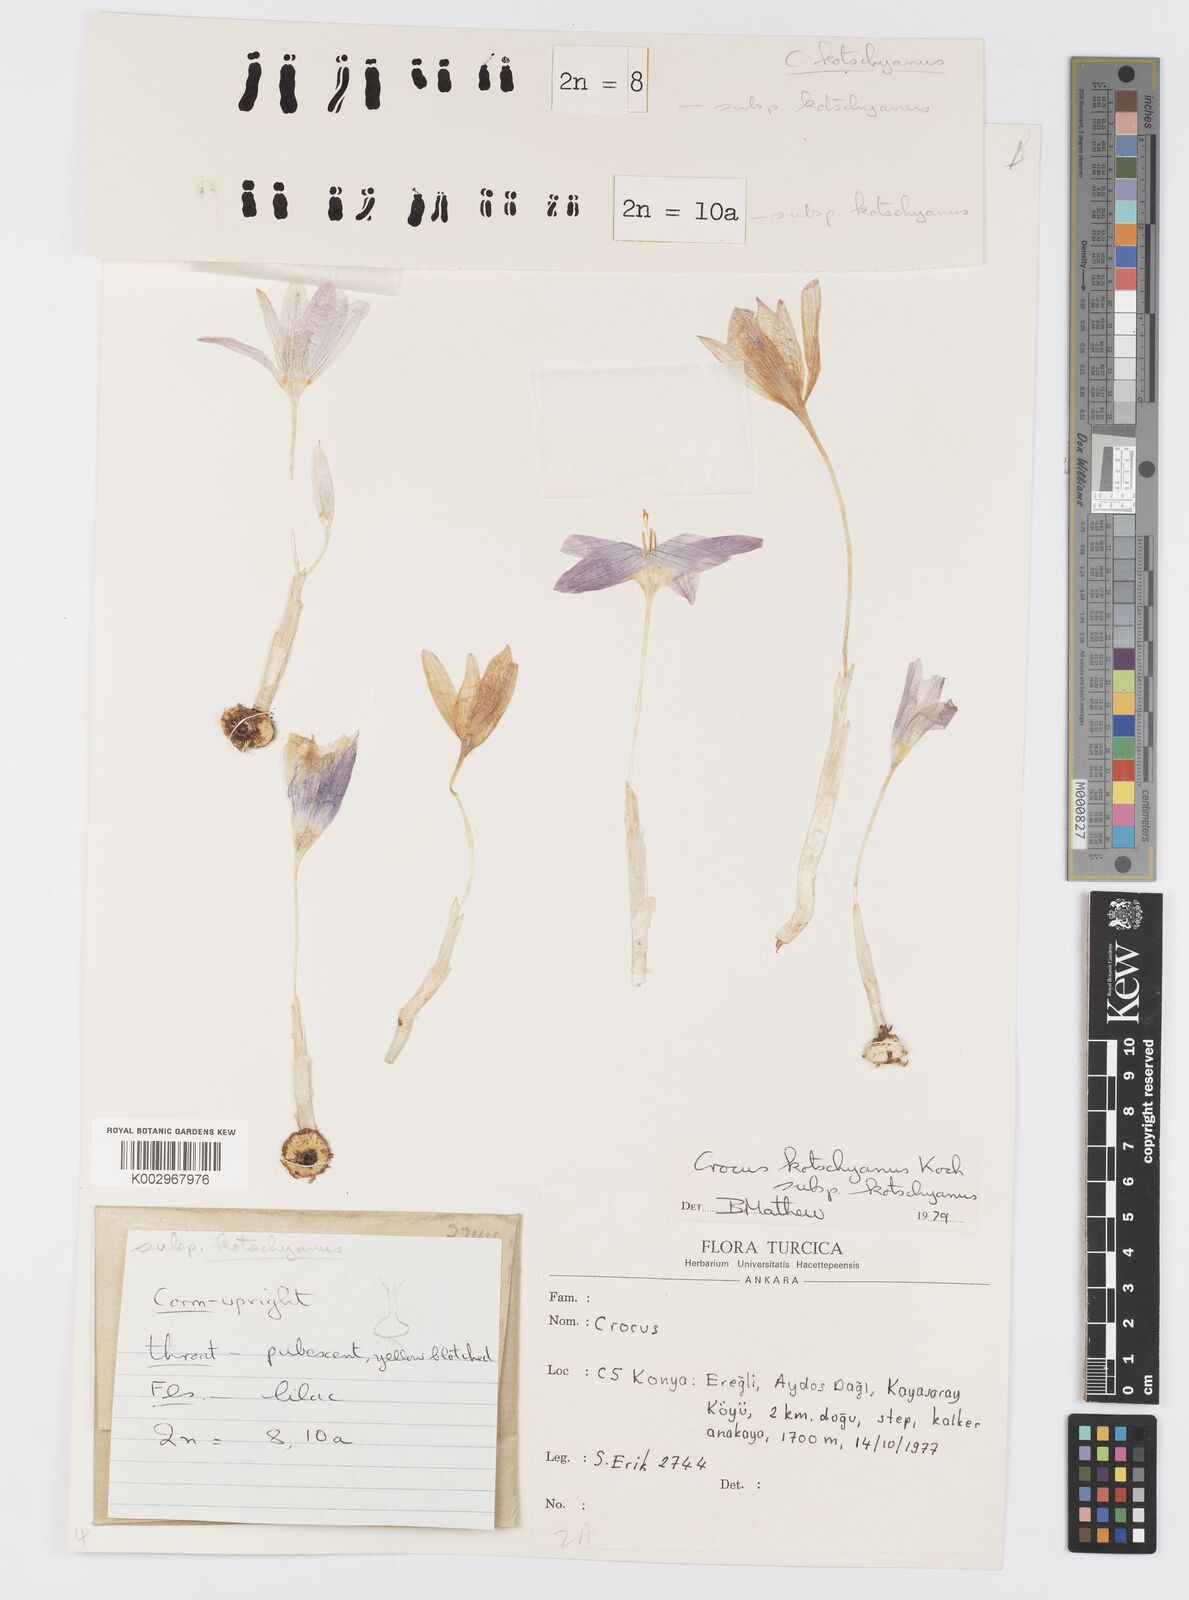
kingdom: Plantae
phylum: Tracheophyta
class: Liliopsida
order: Asparagales
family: Iridaceae
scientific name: Iridaceae
